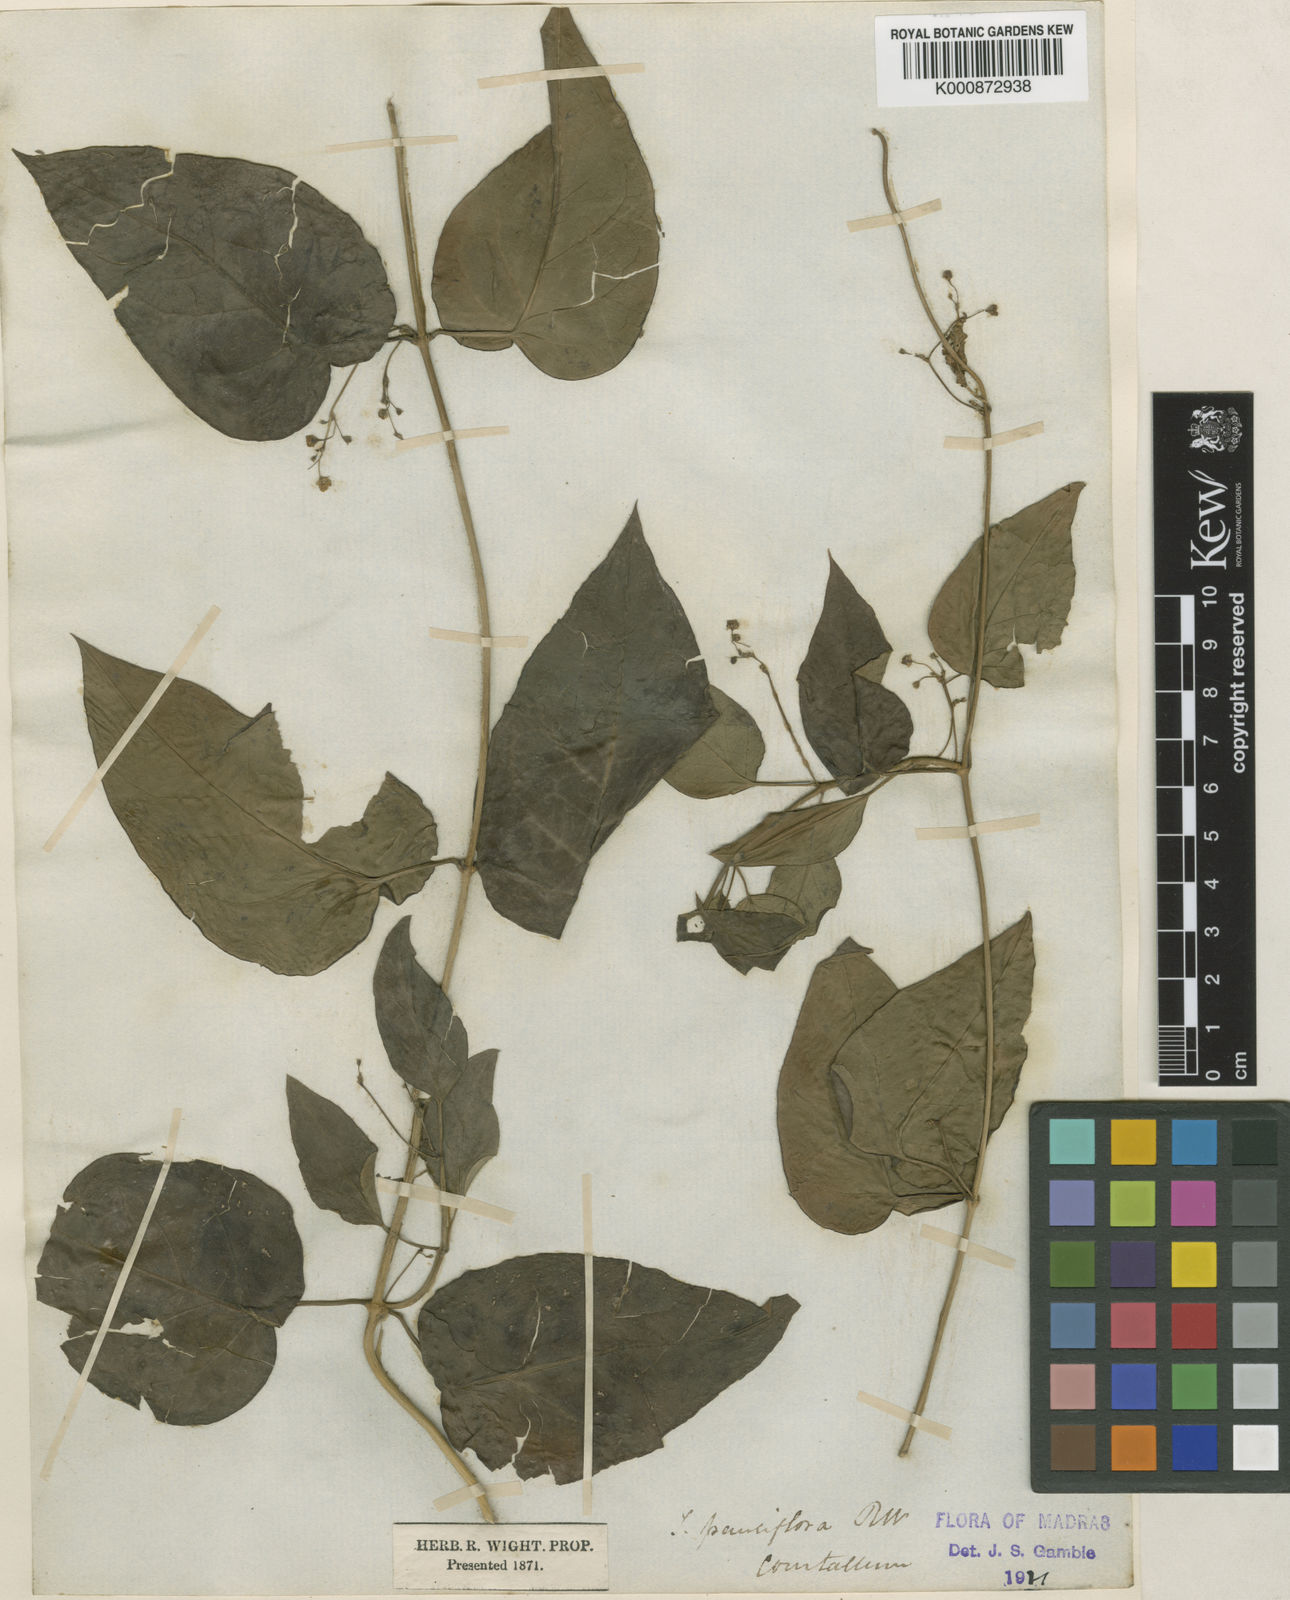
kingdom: Plantae
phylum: Tracheophyta
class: Magnoliopsida
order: Gentianales
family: Apocynaceae
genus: Vincetoxicum
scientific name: Vincetoxicum bracteatum
